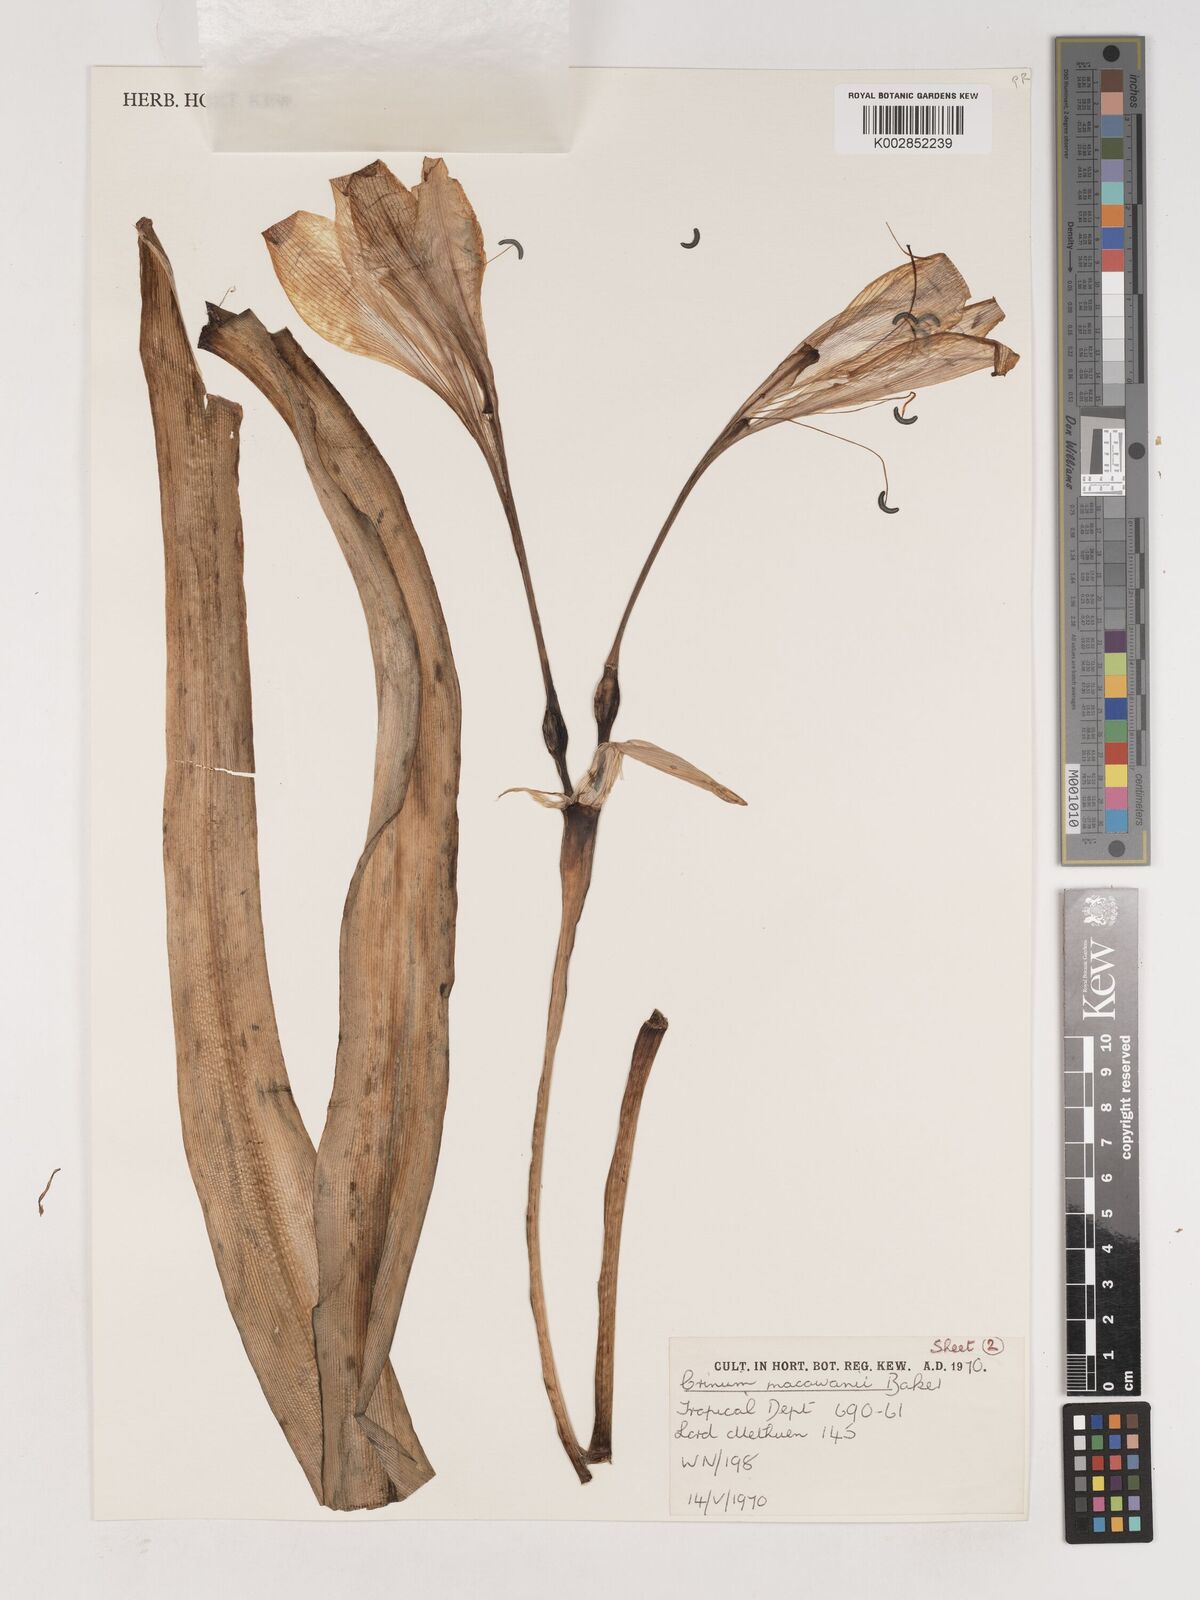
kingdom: Plantae
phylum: Tracheophyta
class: Liliopsida
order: Asparagales
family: Amaryllidaceae
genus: Crinum
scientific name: Crinum macowanii
